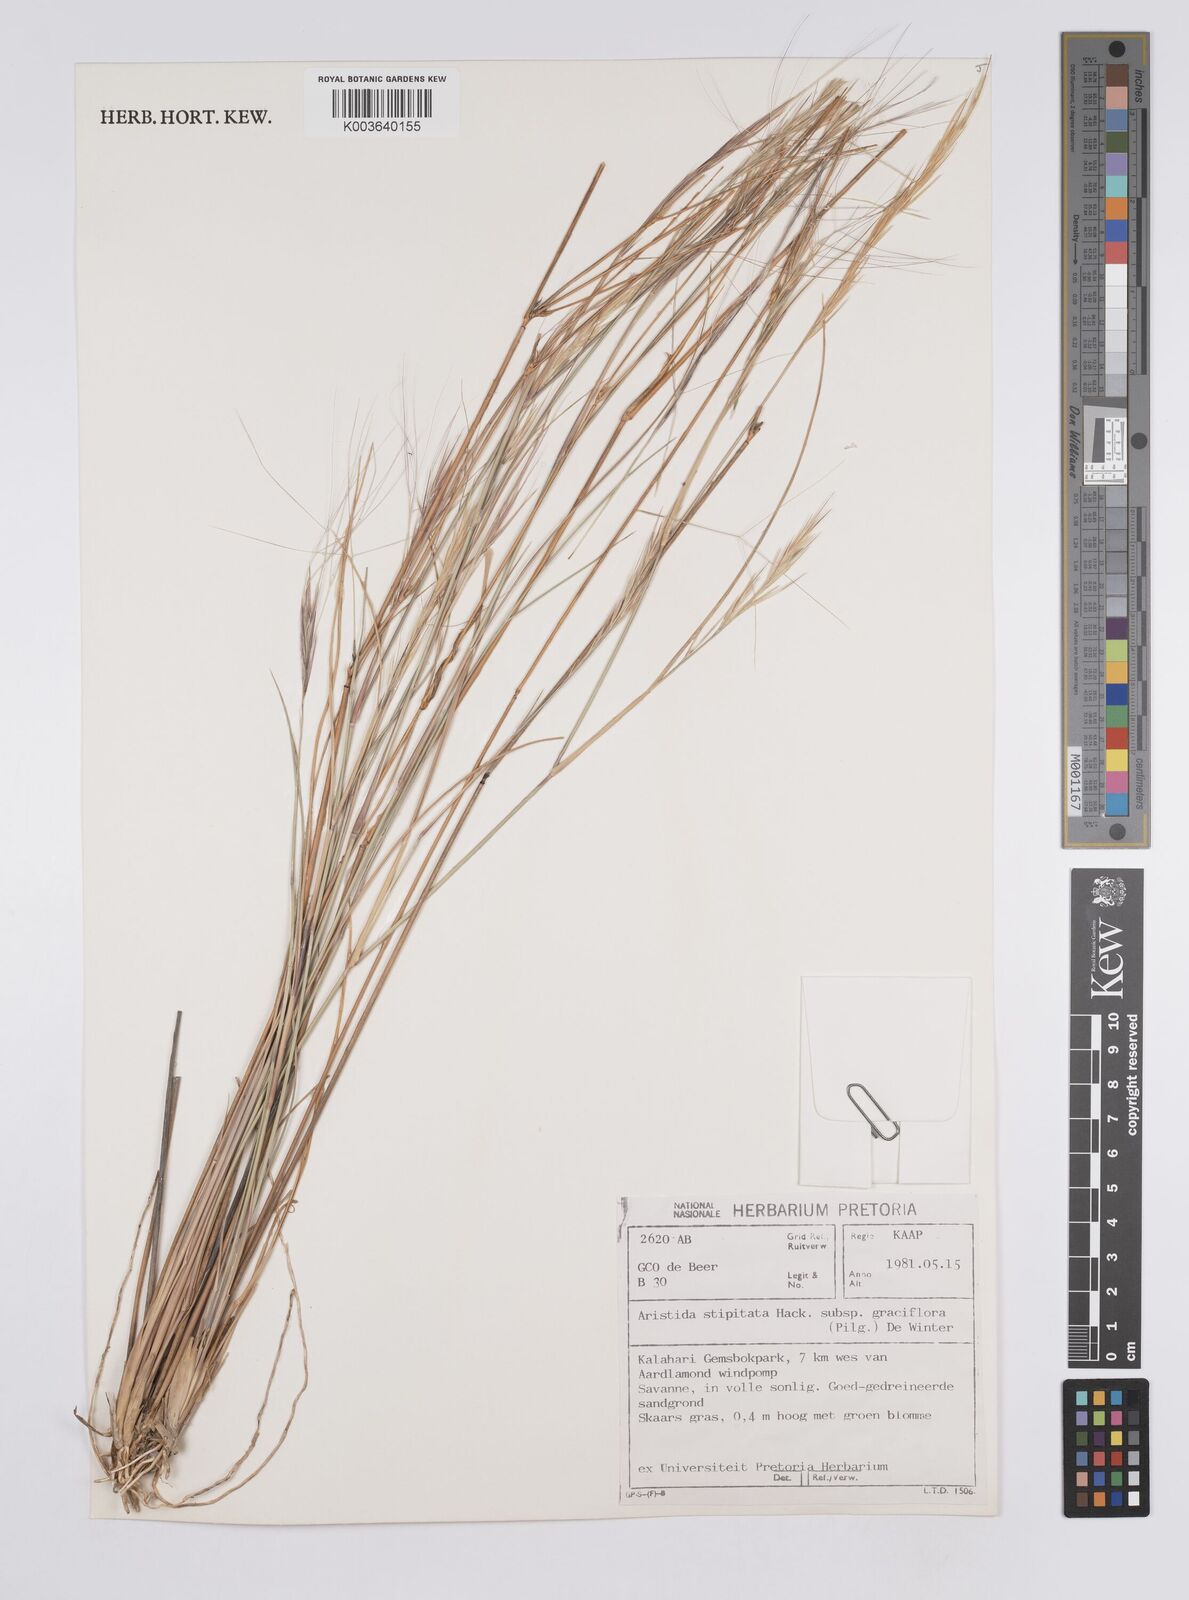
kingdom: Plantae
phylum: Tracheophyta
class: Liliopsida
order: Poales
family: Poaceae
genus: Aristida
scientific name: Aristida stipitata
